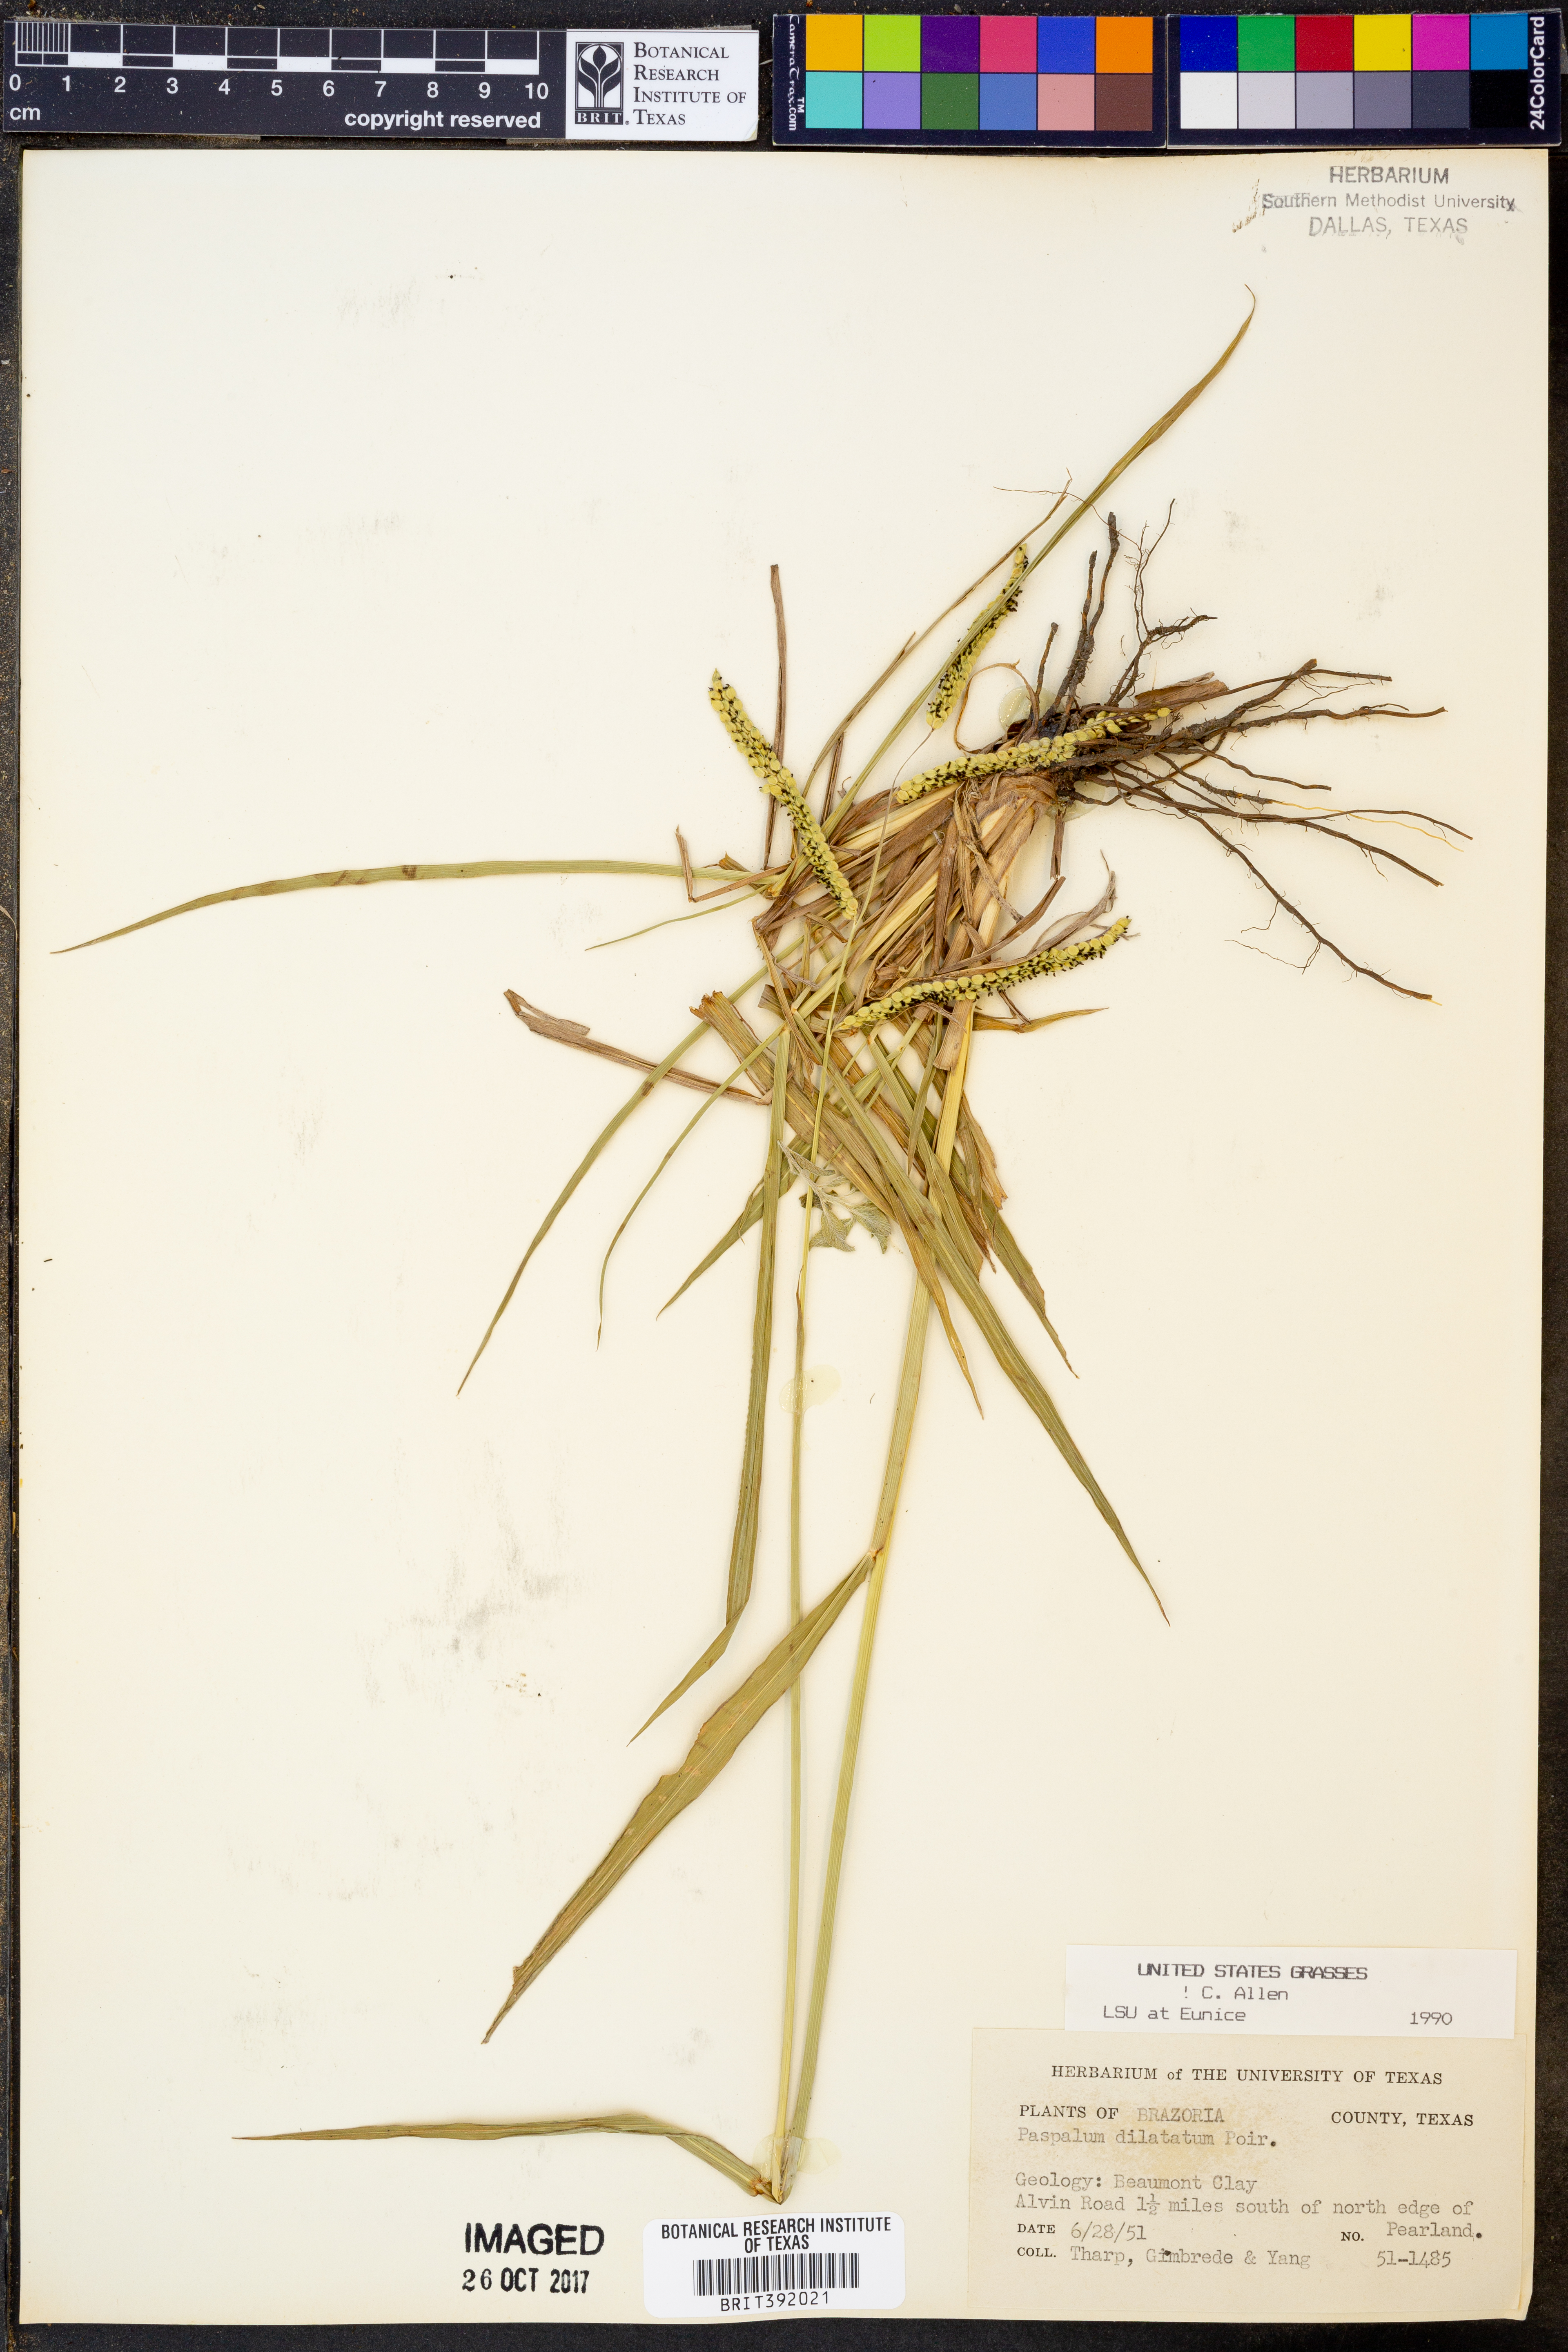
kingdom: Plantae
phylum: Tracheophyta
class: Liliopsida
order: Poales
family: Poaceae
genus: Paspalum
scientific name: Paspalum dilatatum
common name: Dallisgrass
